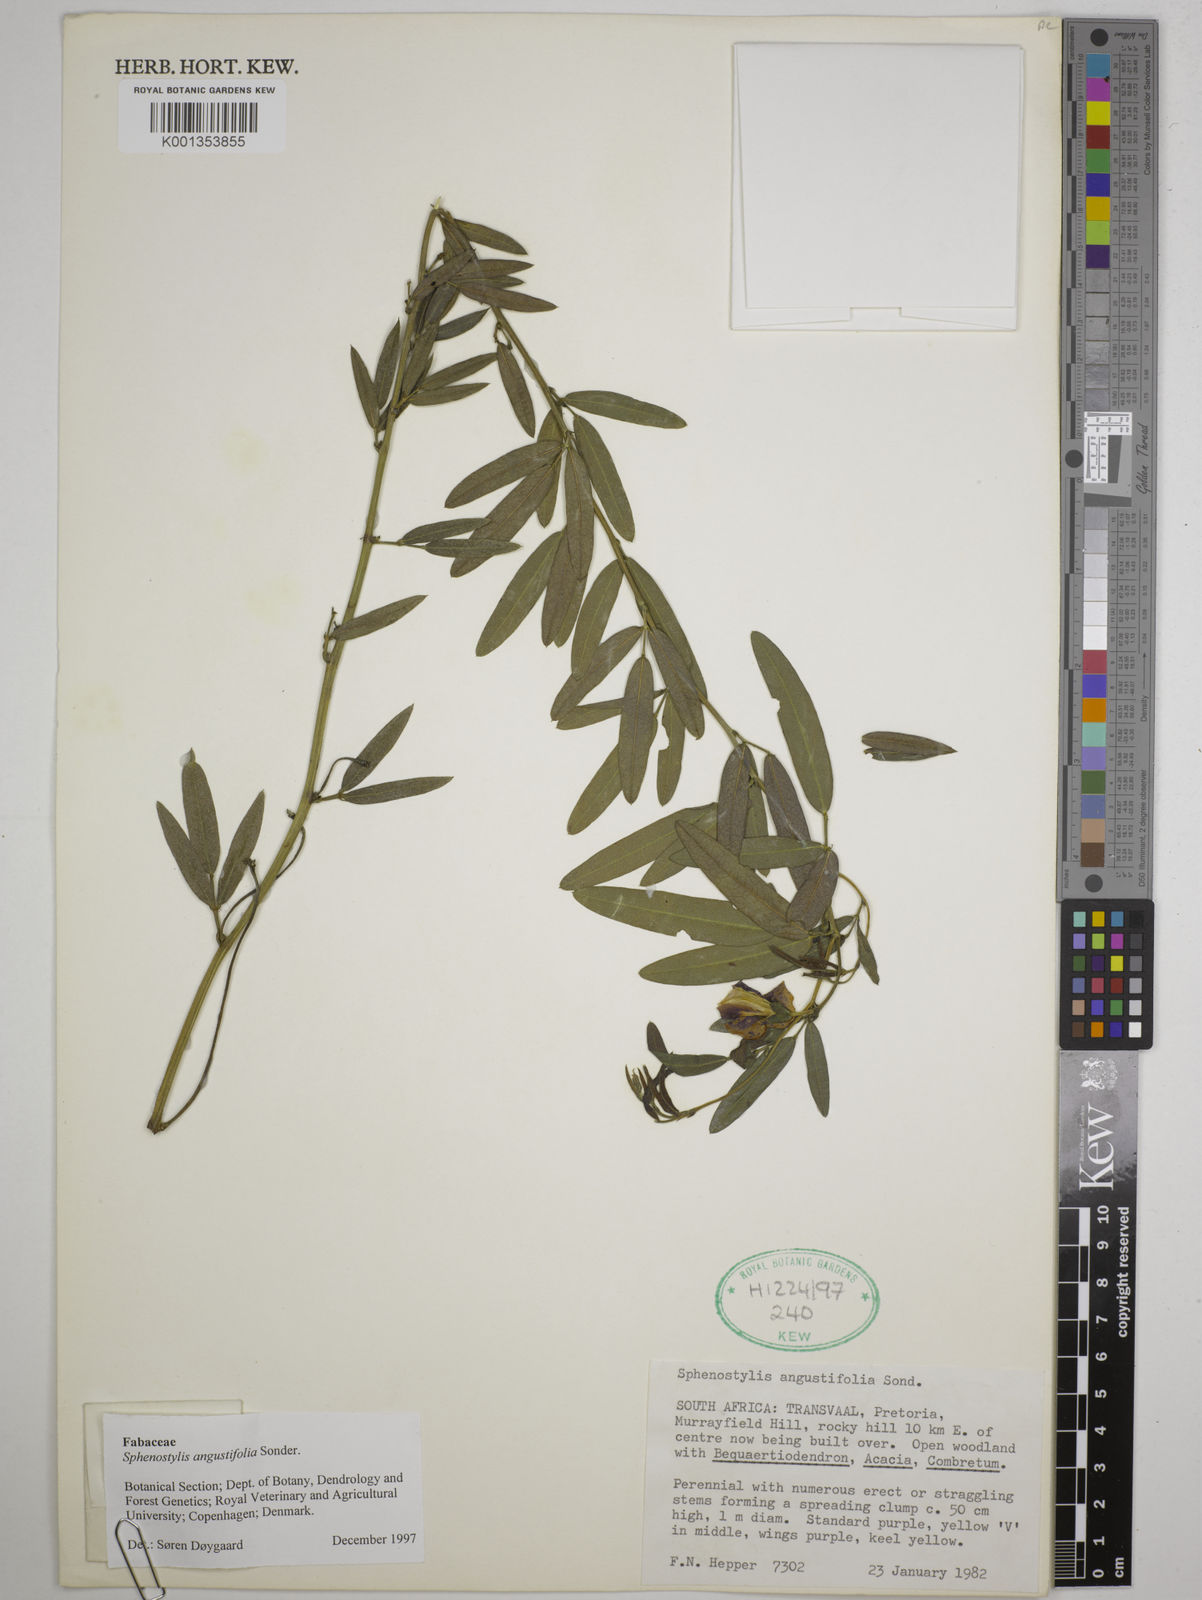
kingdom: Plantae
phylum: Tracheophyta
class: Magnoliopsida
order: Fabales
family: Fabaceae
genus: Sphenostylis
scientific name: Sphenostylis angustifolia
